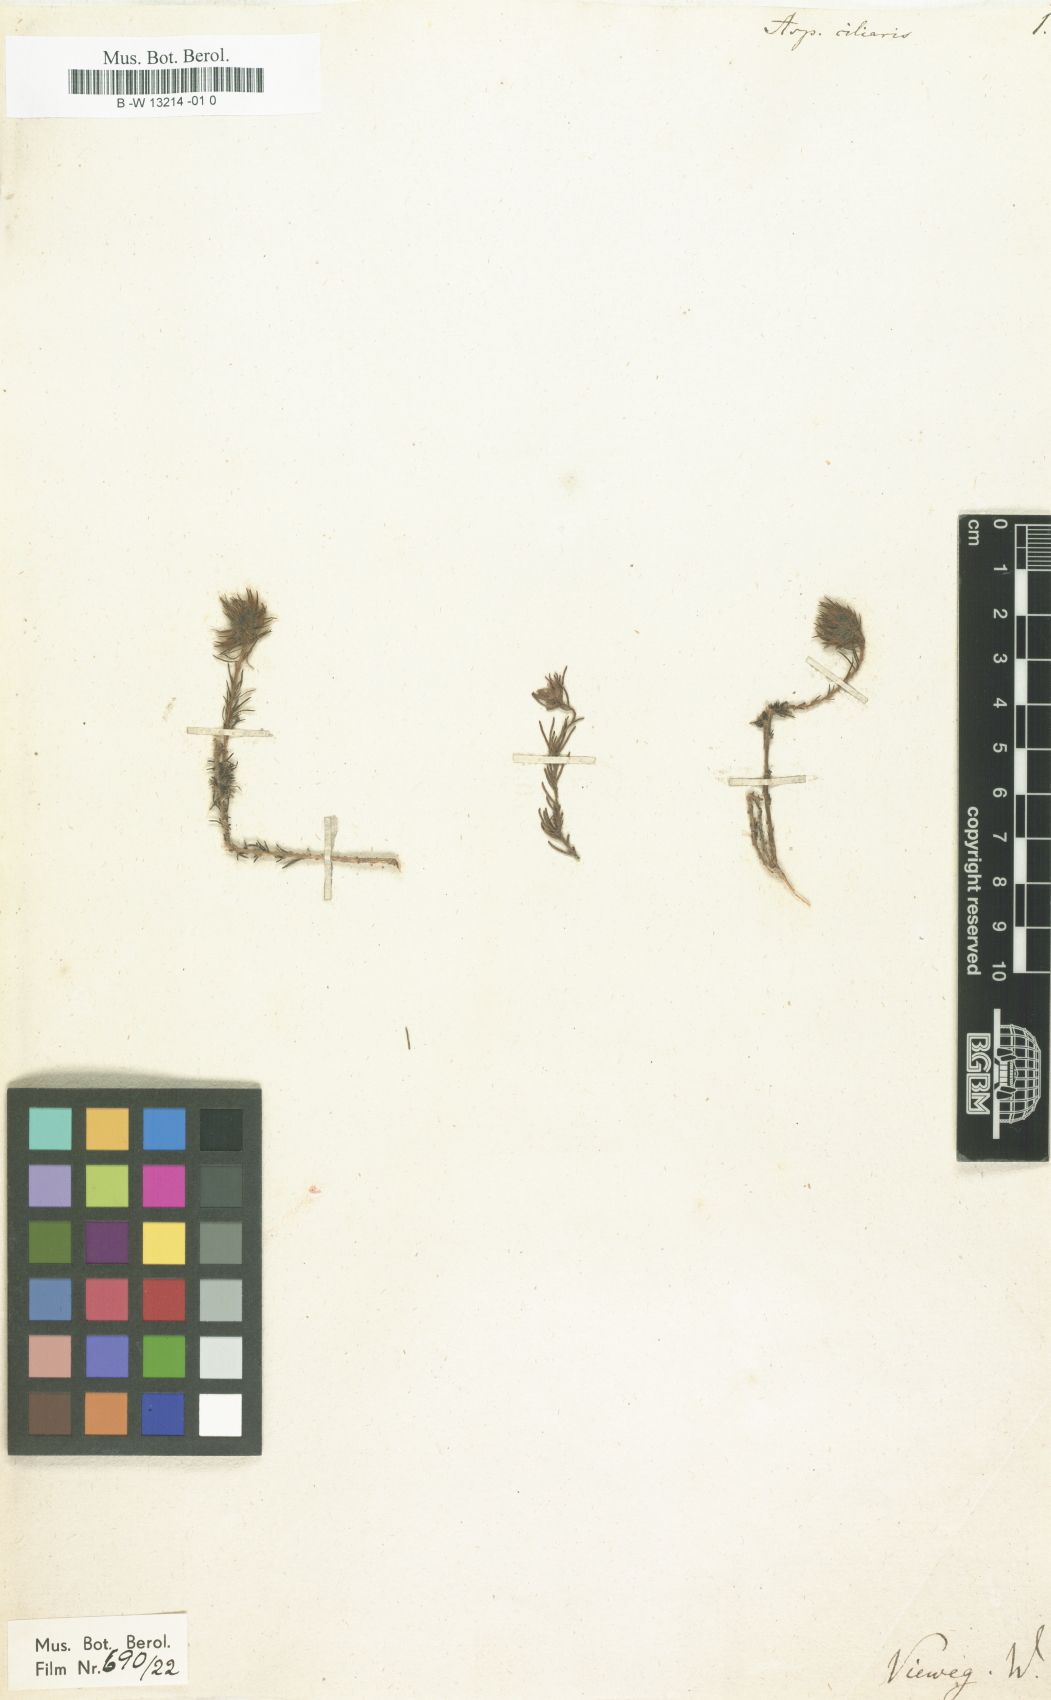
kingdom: Plantae
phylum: Tracheophyta
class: Magnoliopsida
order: Fabales
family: Fabaceae
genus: Aspalathus
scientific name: Aspalathus ciliaris
